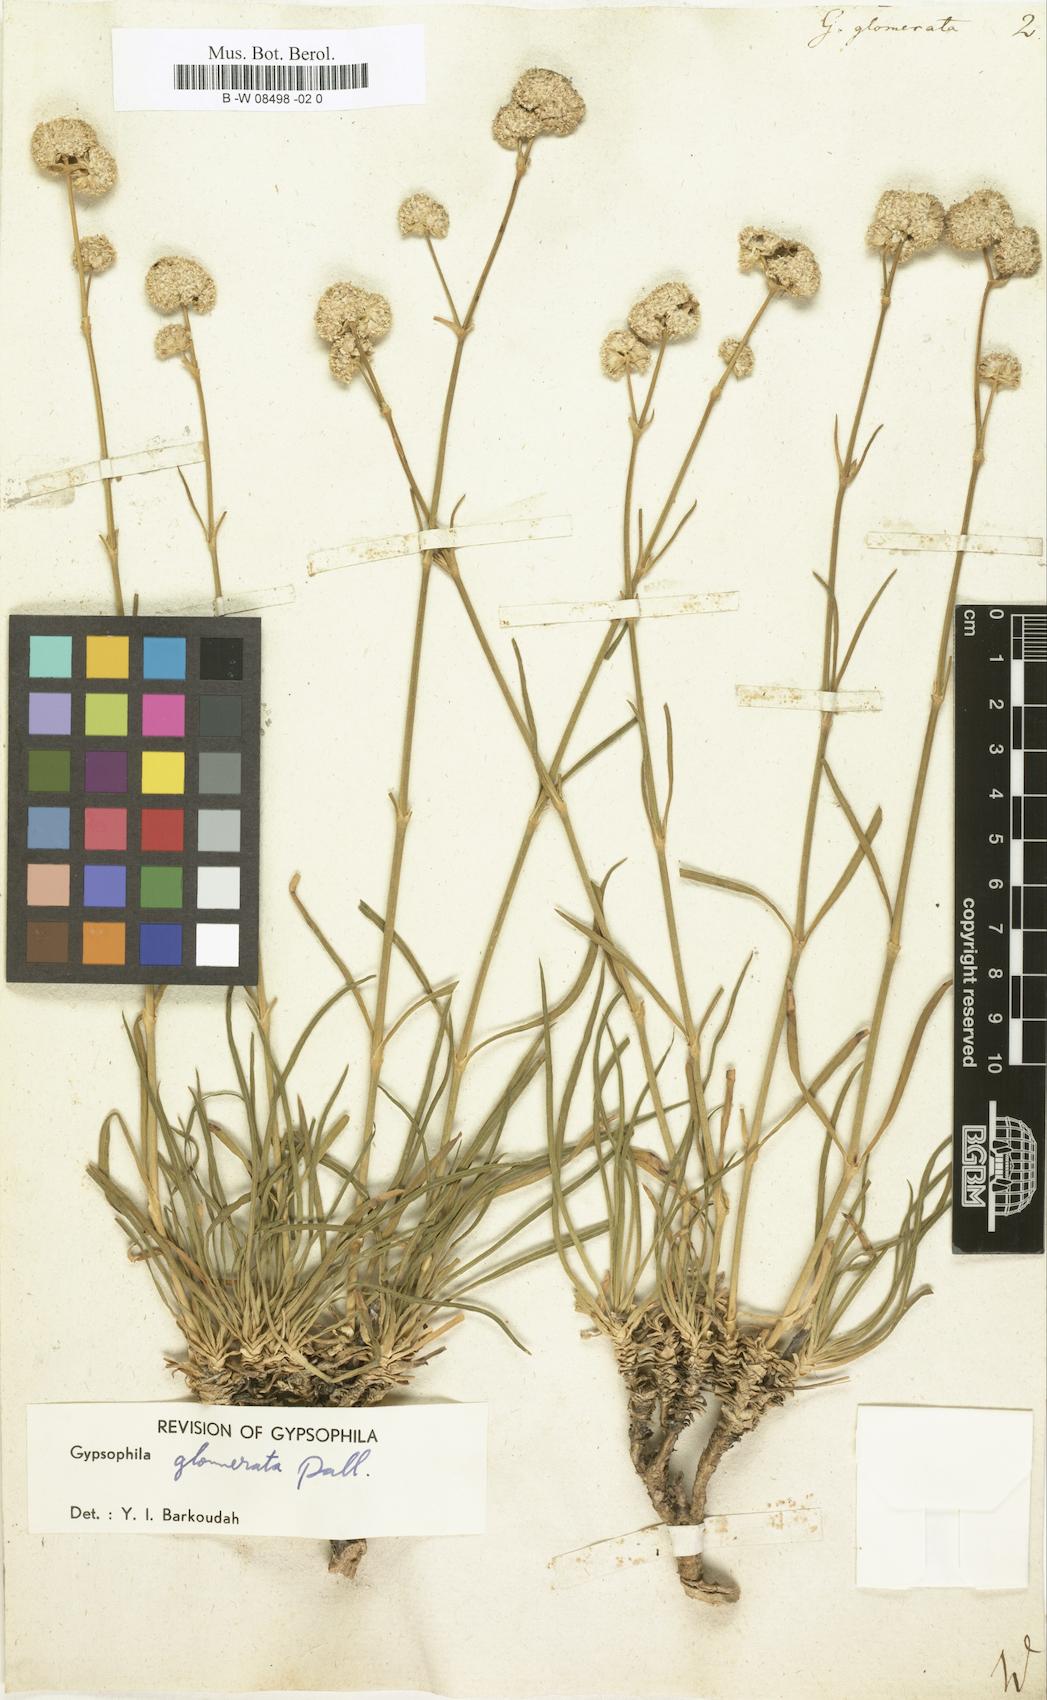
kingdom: Plantae
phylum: Tracheophyta
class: Magnoliopsida
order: Caryophyllales
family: Caryophyllaceae
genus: Gypsophila
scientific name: Gypsophila glomerata
